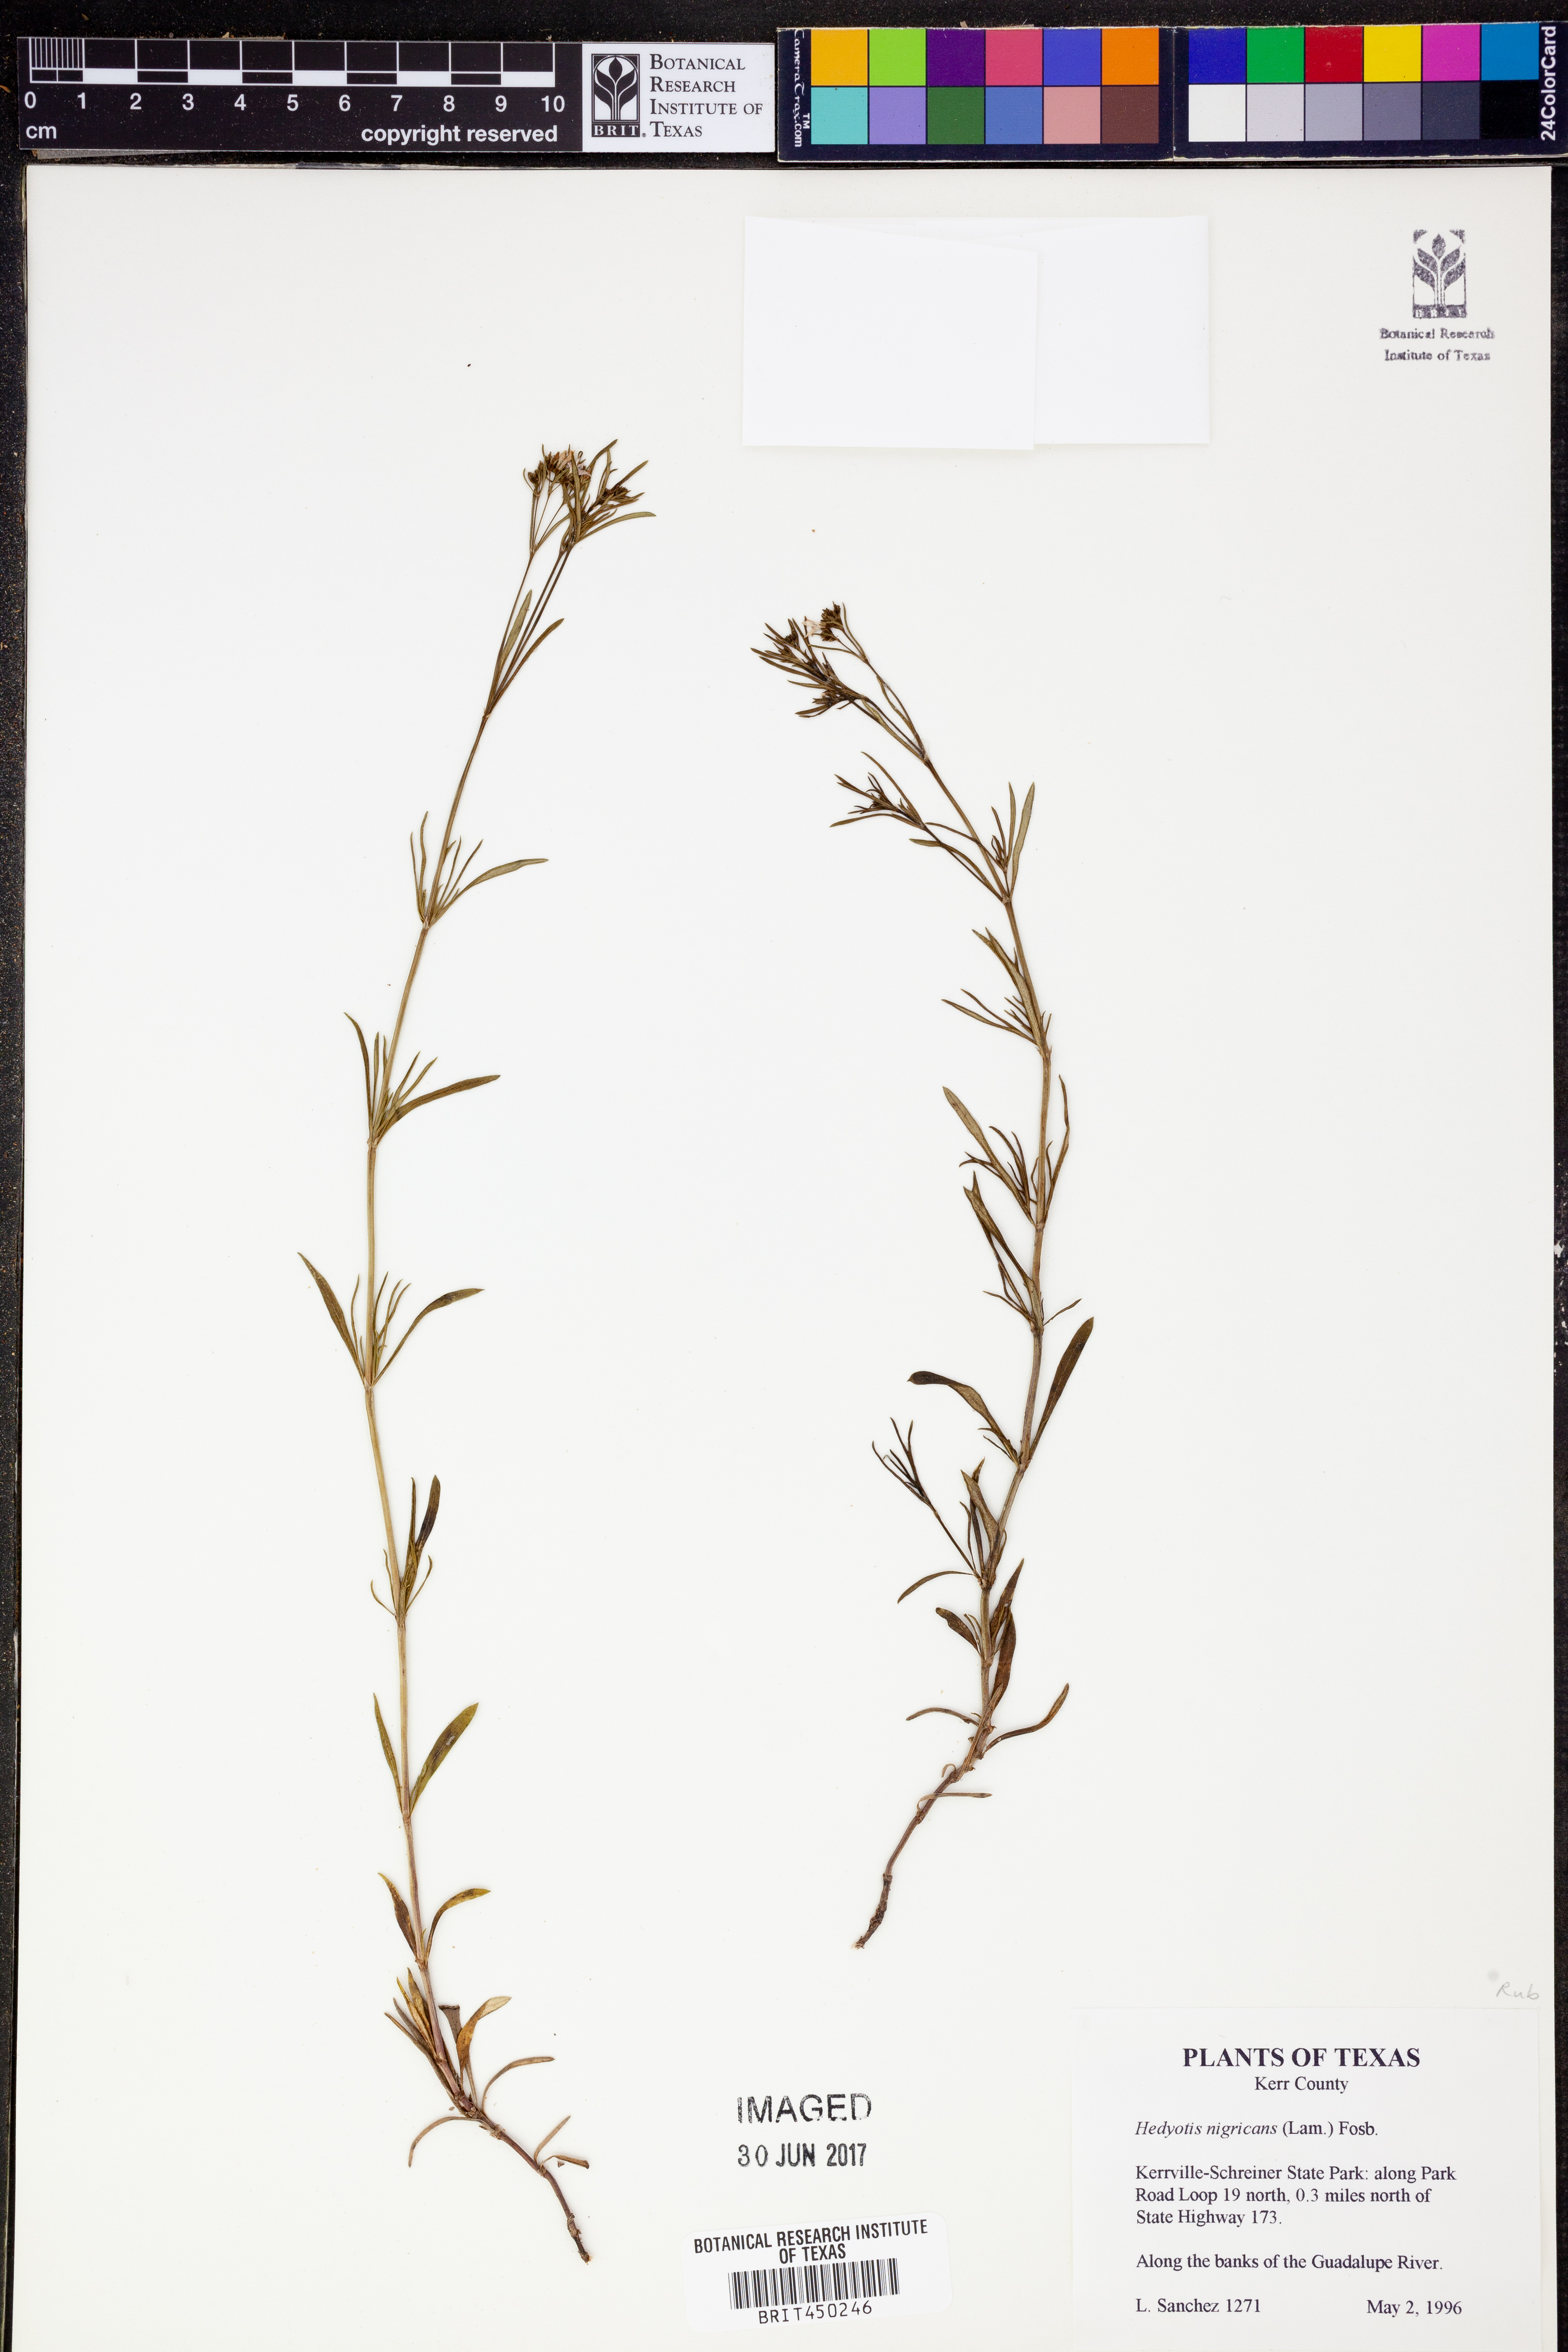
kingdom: Plantae
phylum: Tracheophyta
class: Magnoliopsida
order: Gentianales
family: Rubiaceae
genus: Stenaria
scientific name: Stenaria nigricans
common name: Diamondflowers
